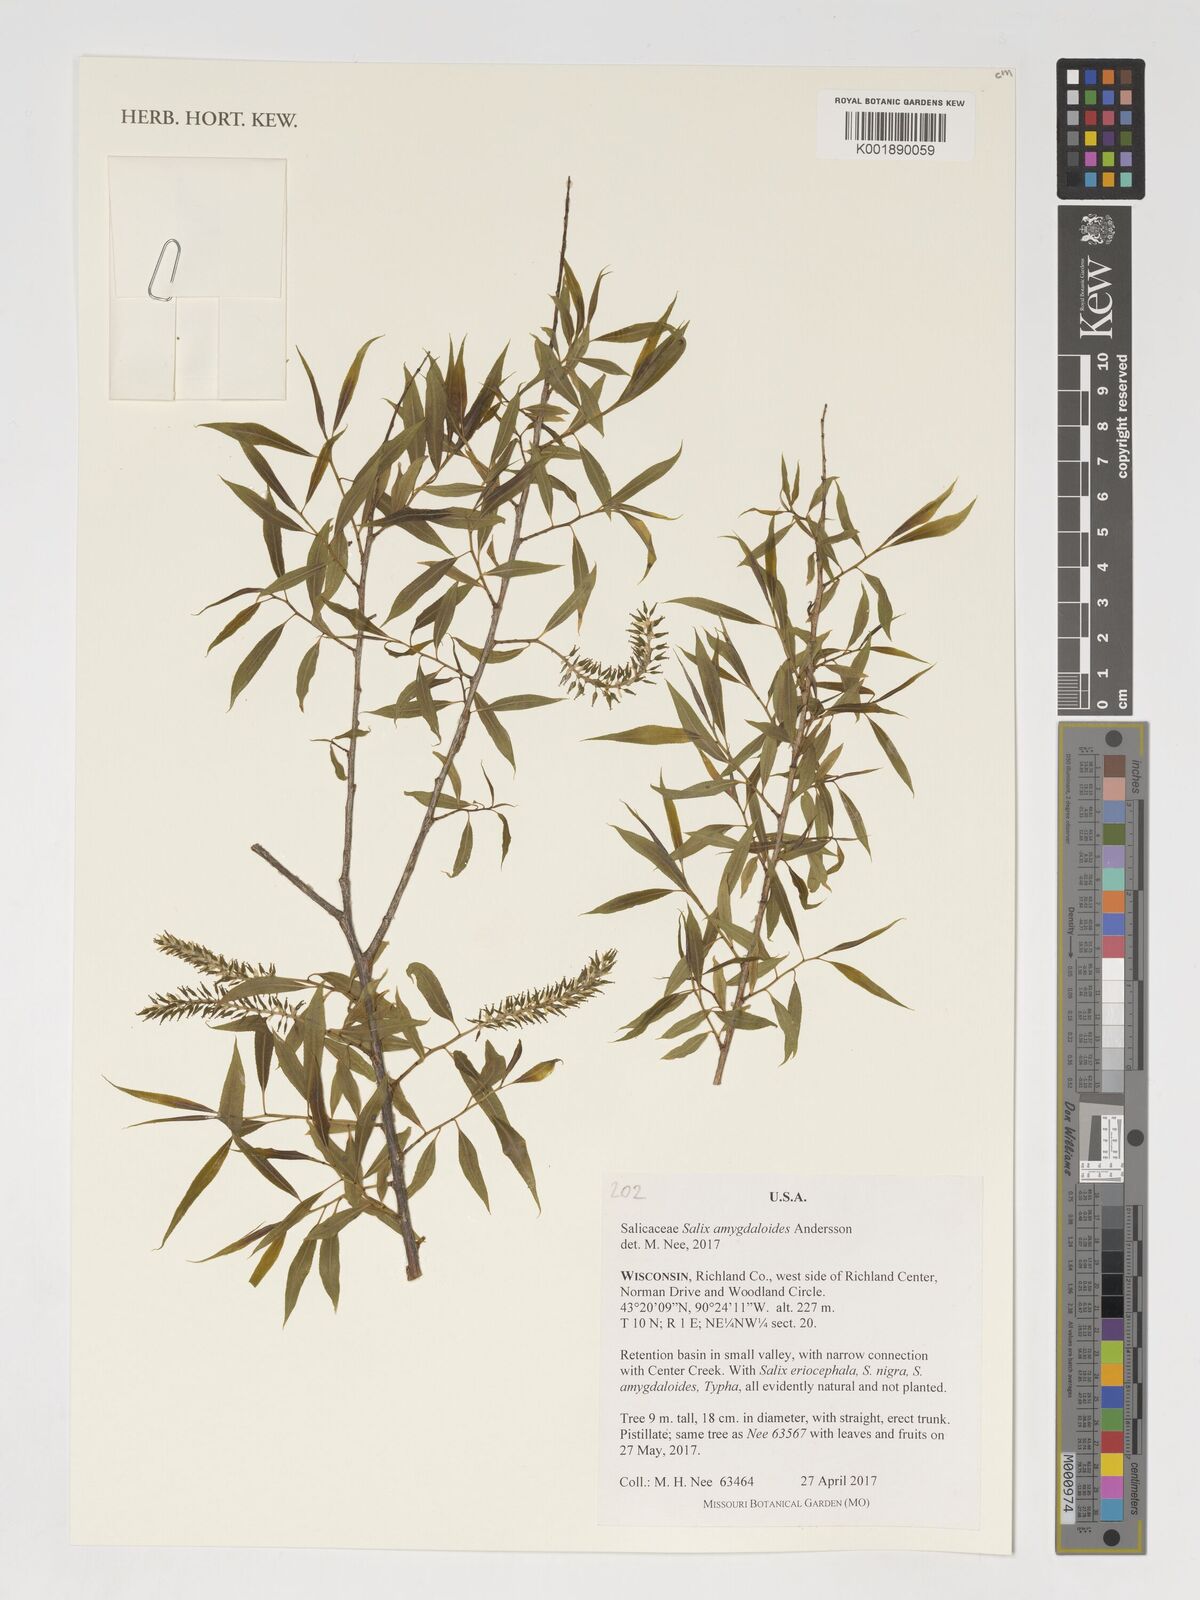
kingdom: Plantae
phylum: Tracheophyta
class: Magnoliopsida
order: Malpighiales
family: Salicaceae
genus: Salix
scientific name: Salix amygdaloides
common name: Peach leaf willow
